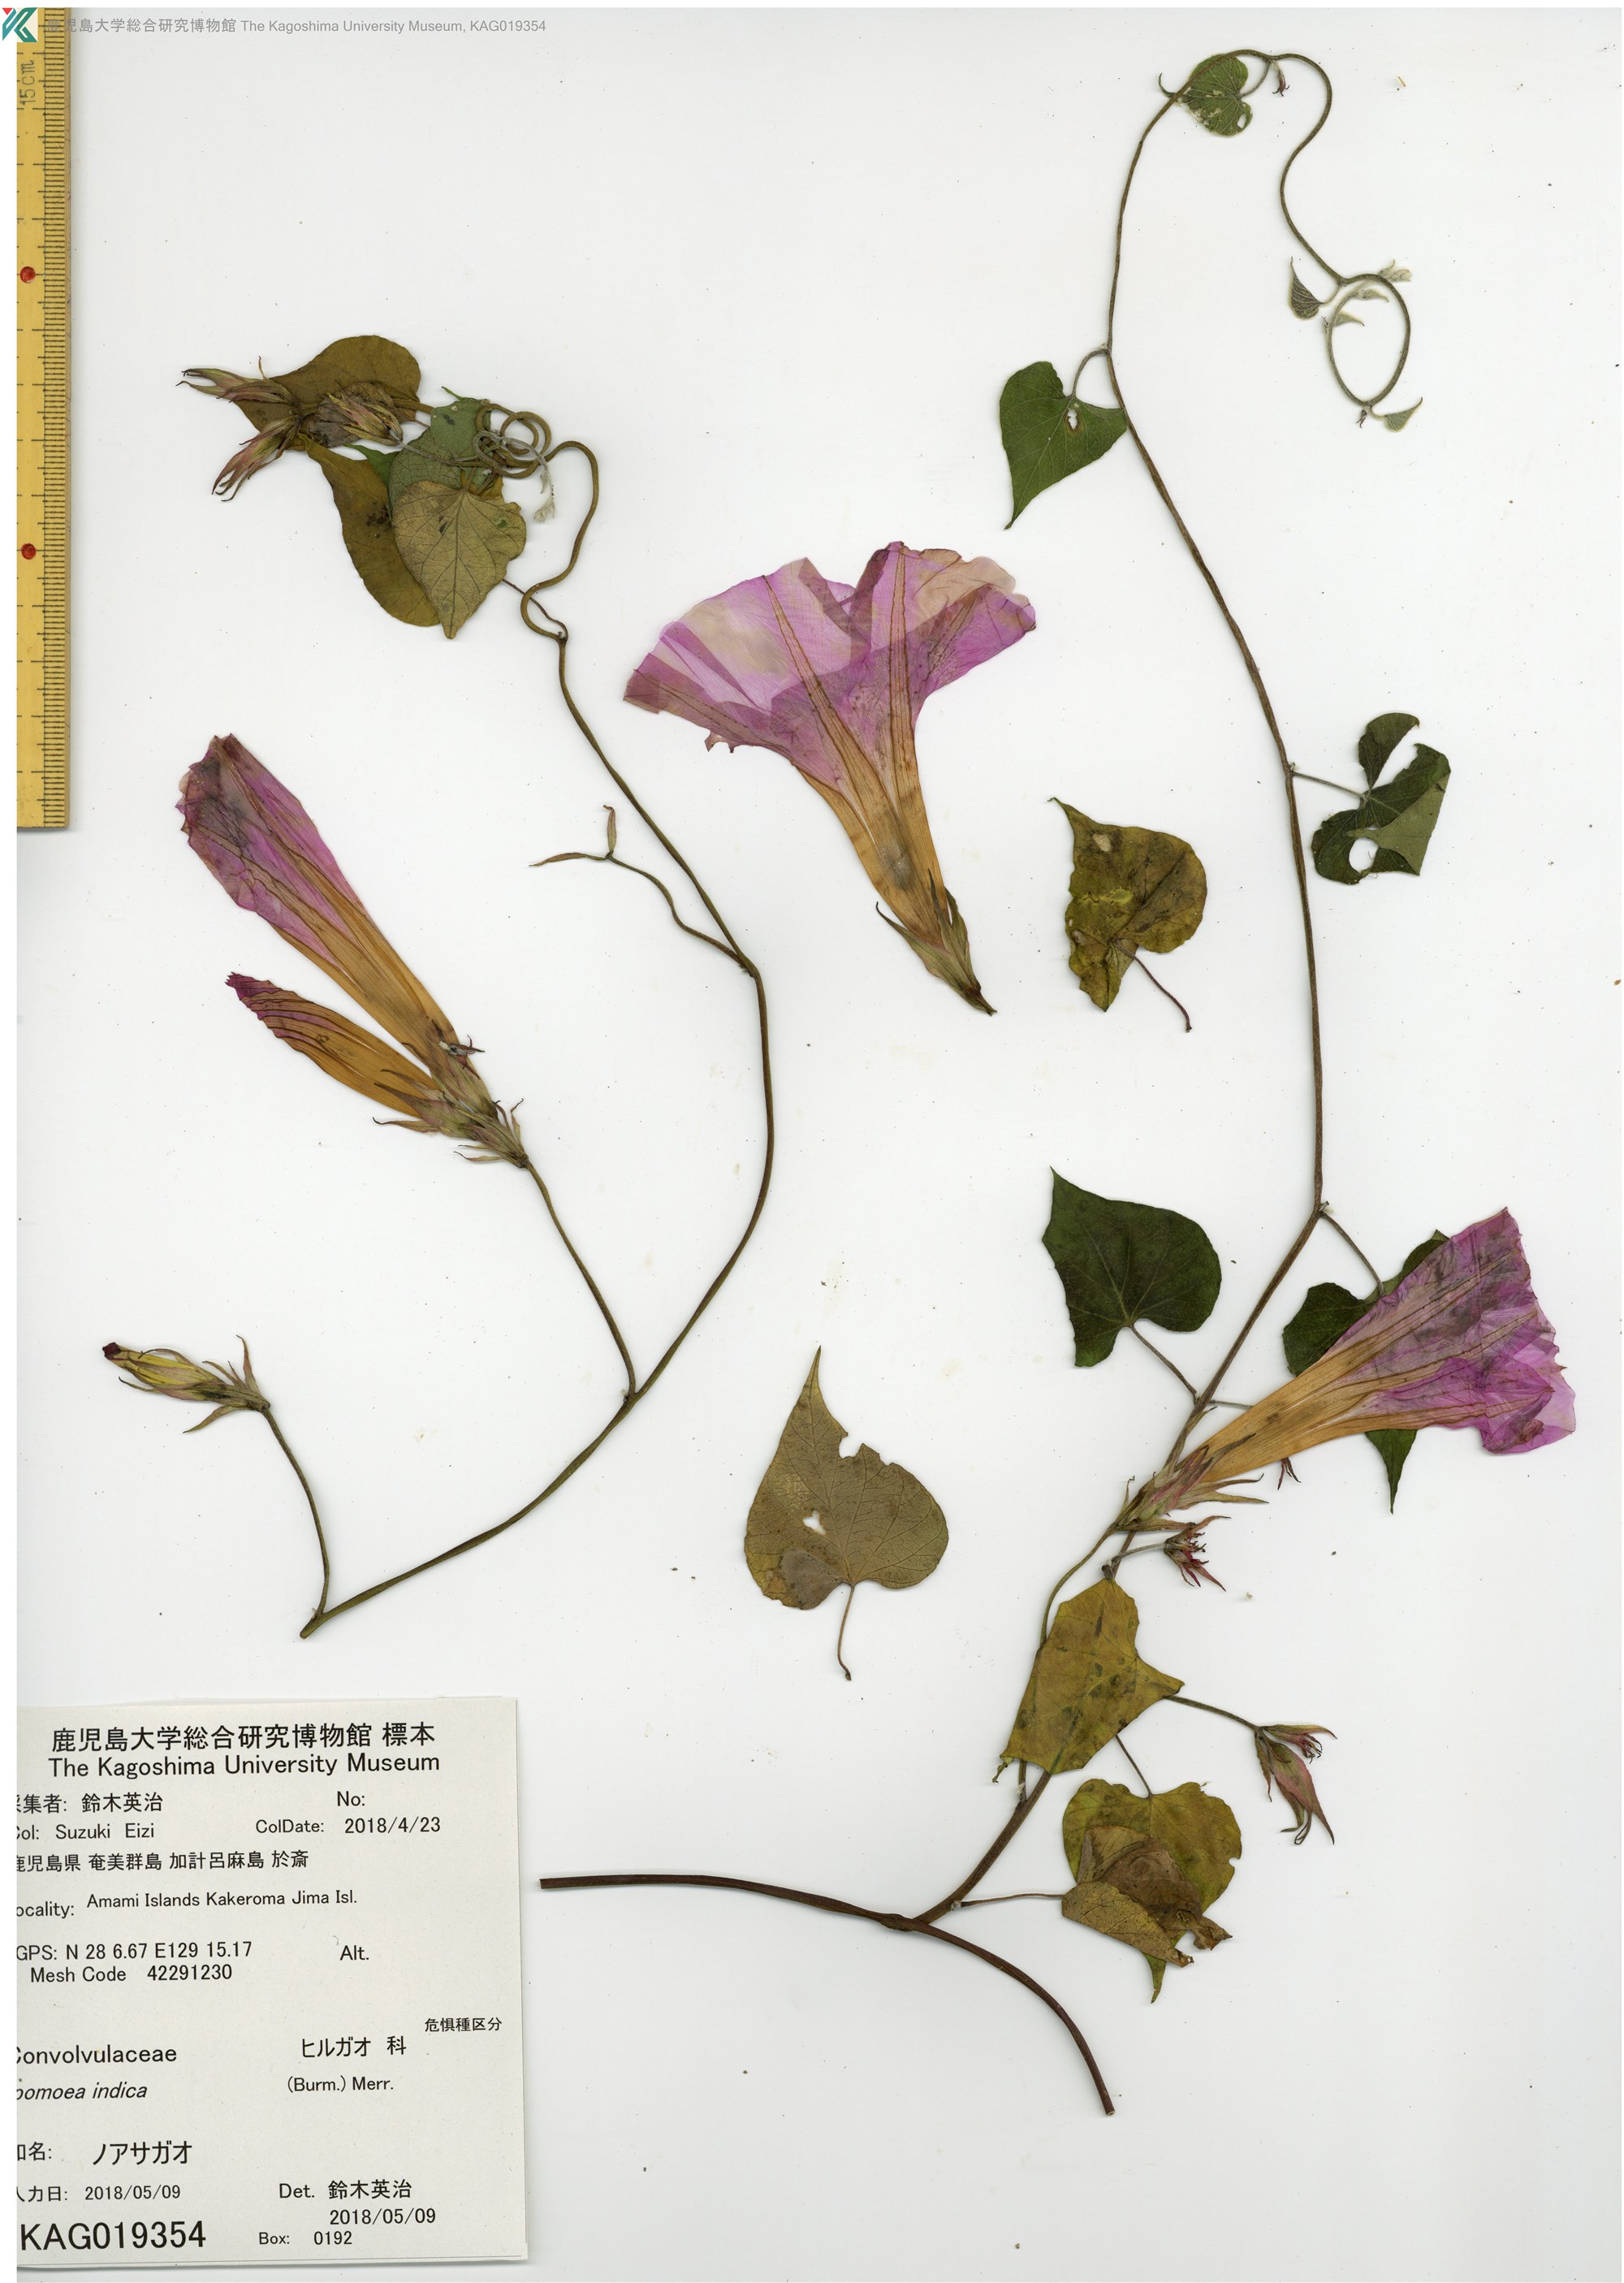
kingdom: Plantae
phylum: Tracheophyta
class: Magnoliopsida
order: Solanales
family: Convolvulaceae
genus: Ipomoea
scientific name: Ipomoea indica
